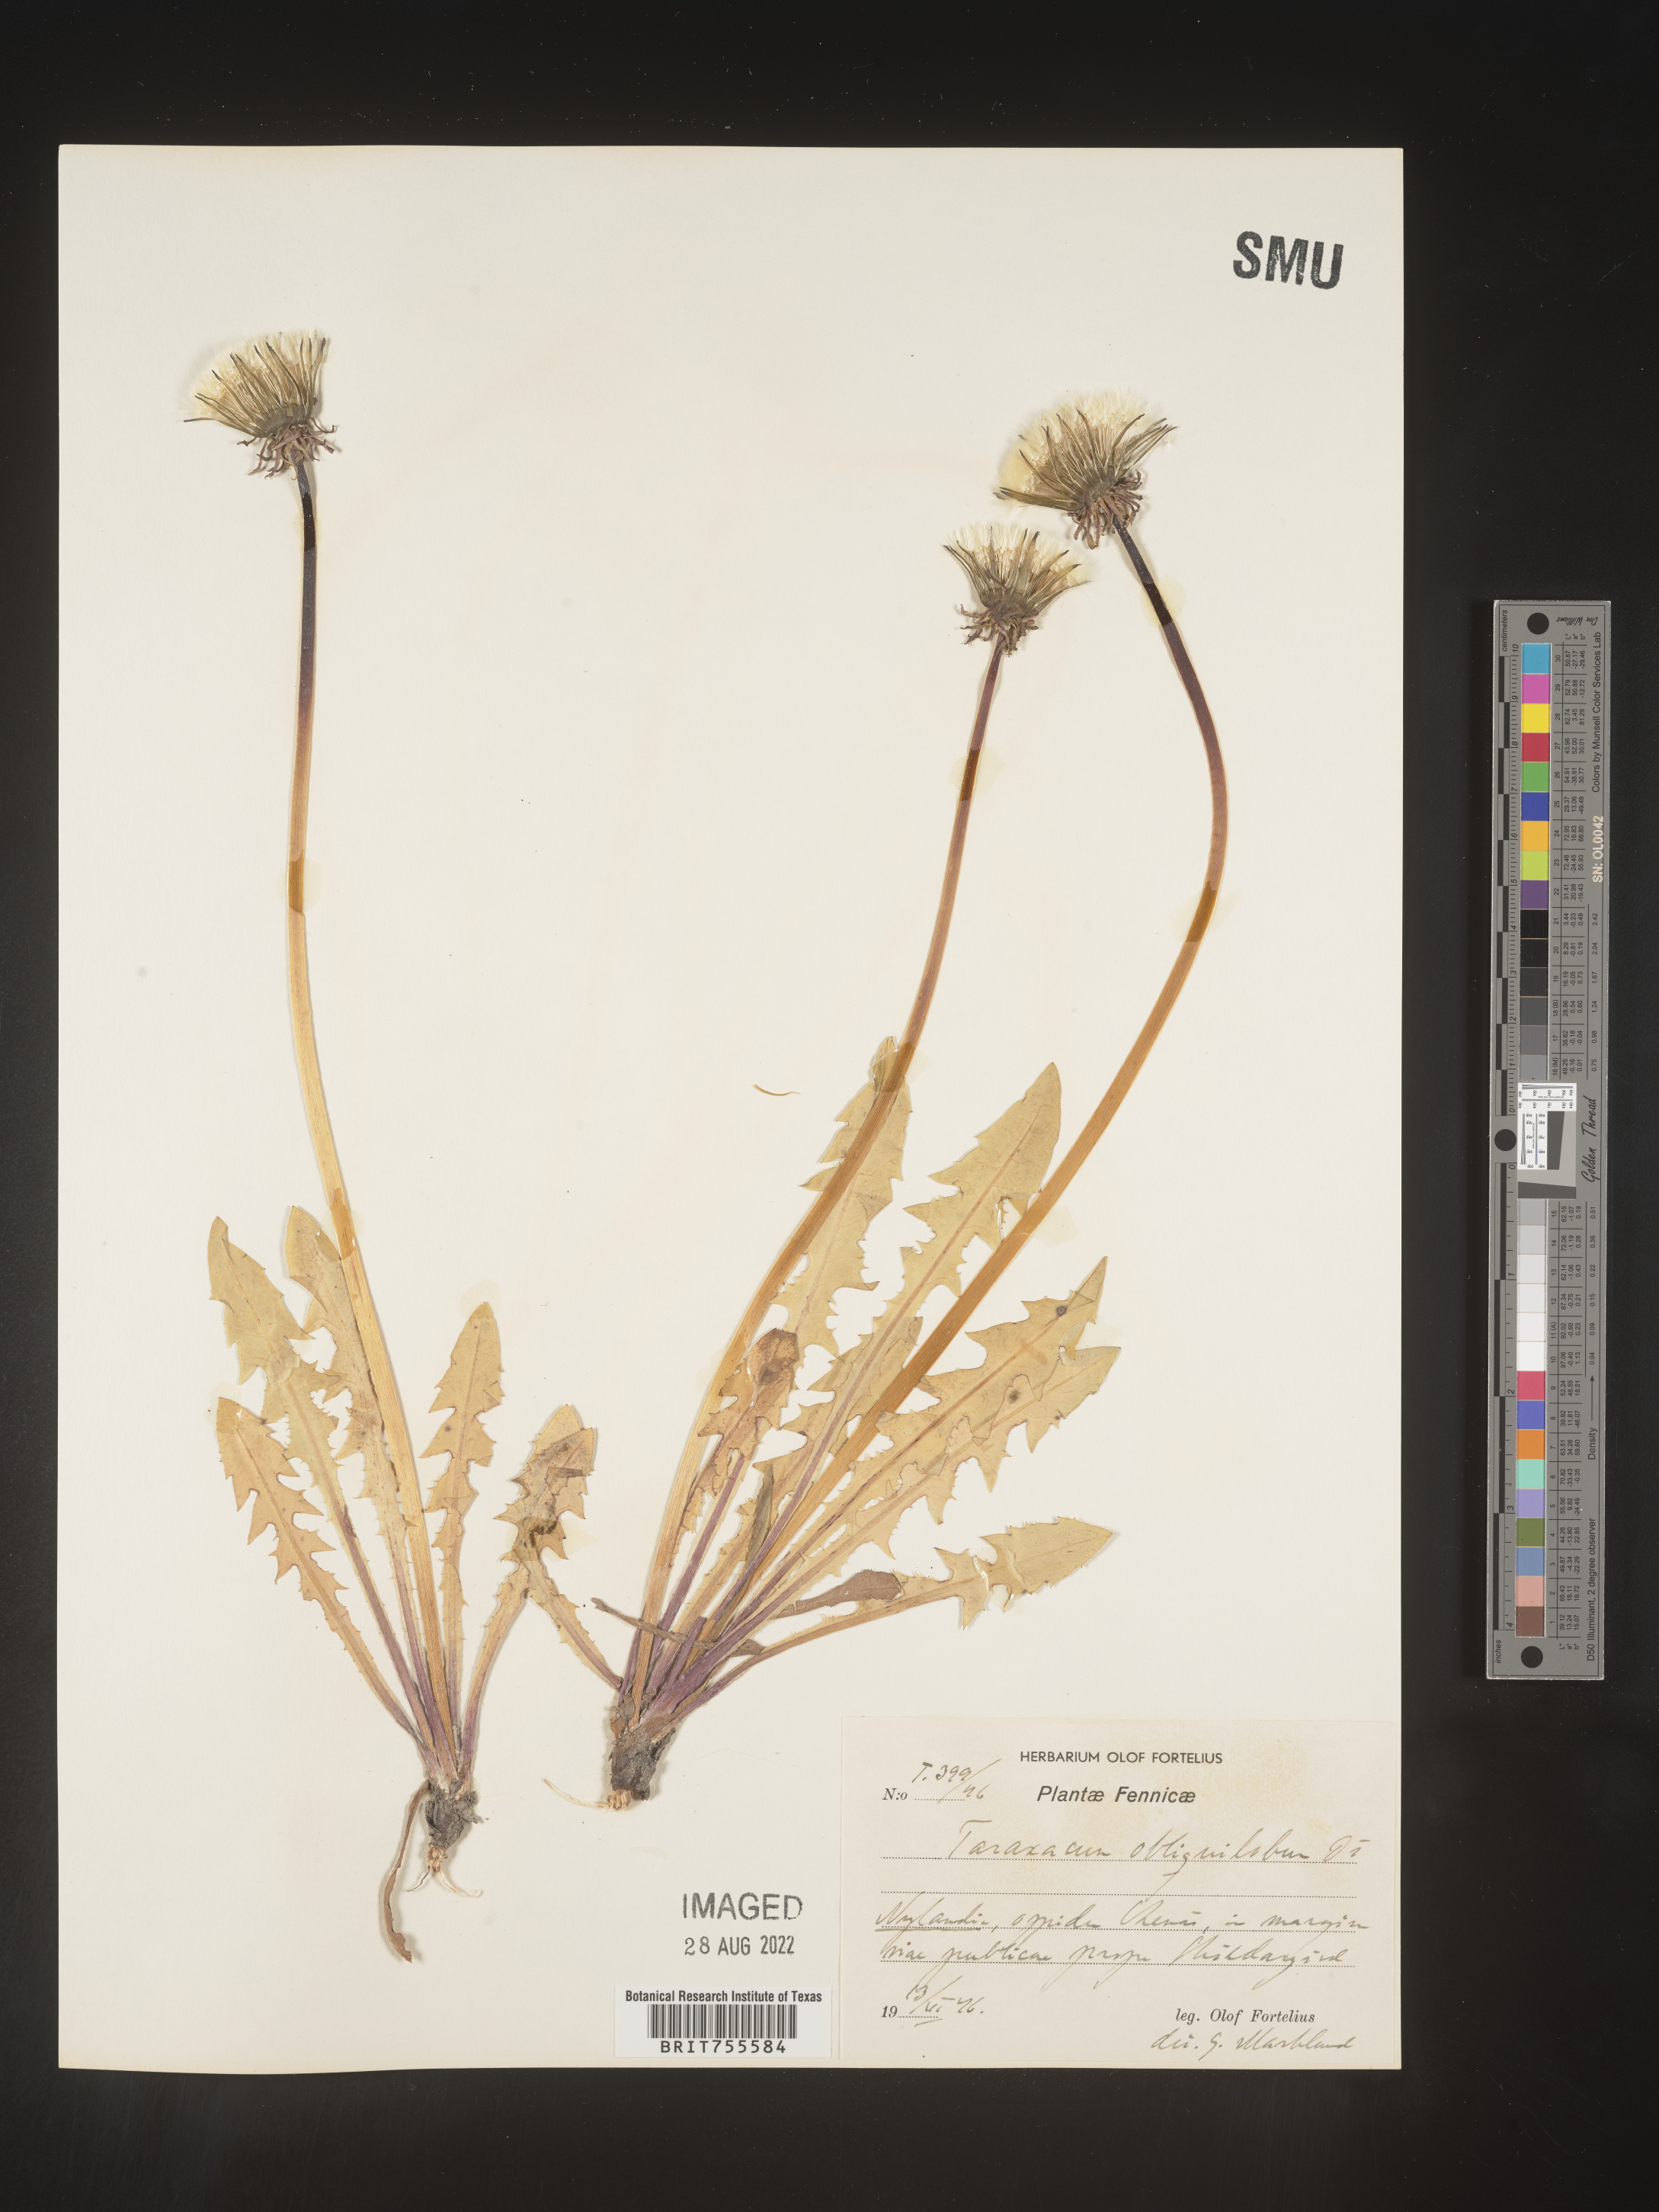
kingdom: Plantae
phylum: Tracheophyta
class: Magnoliopsida
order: Asterales
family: Asteraceae
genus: Taraxacum
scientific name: Taraxacum
